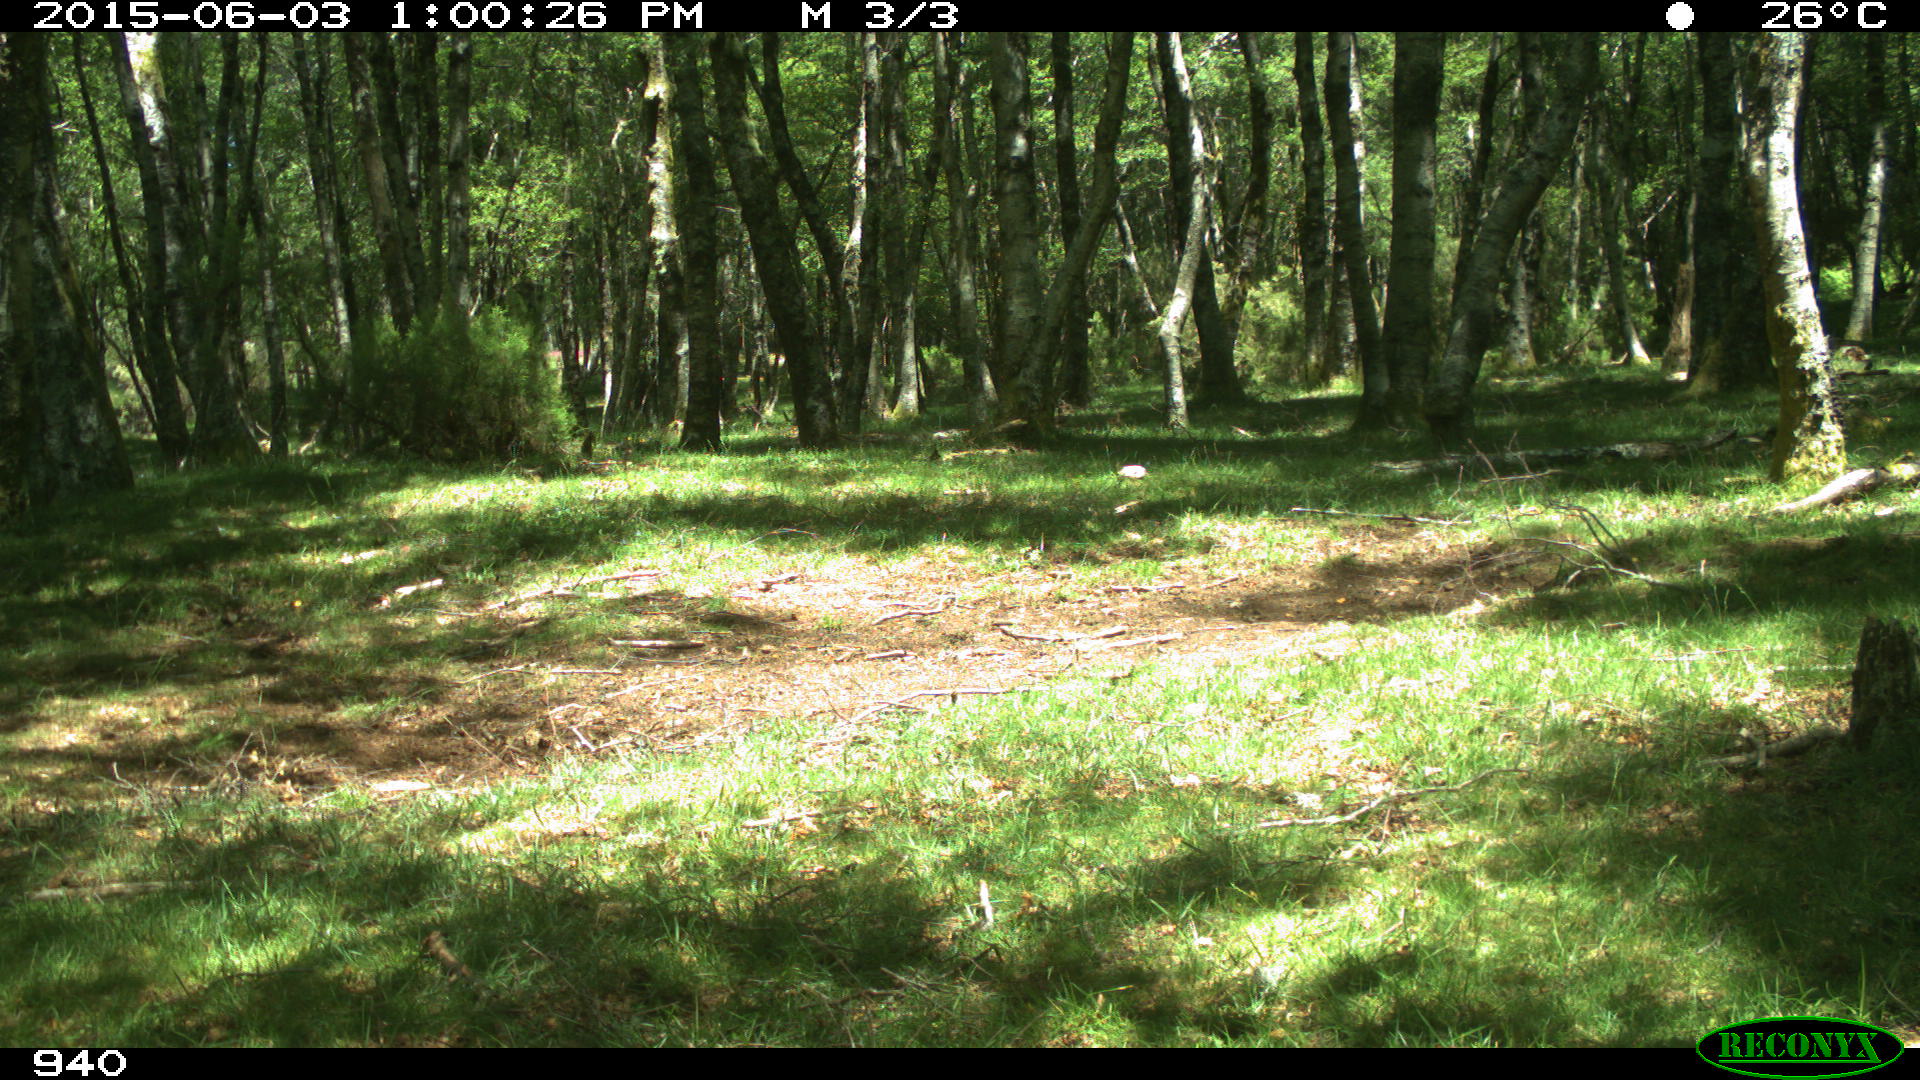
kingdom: Animalia
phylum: Chordata
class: Mammalia
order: Perissodactyla
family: Equidae
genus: Equus
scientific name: Equus caballus
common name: Horse
